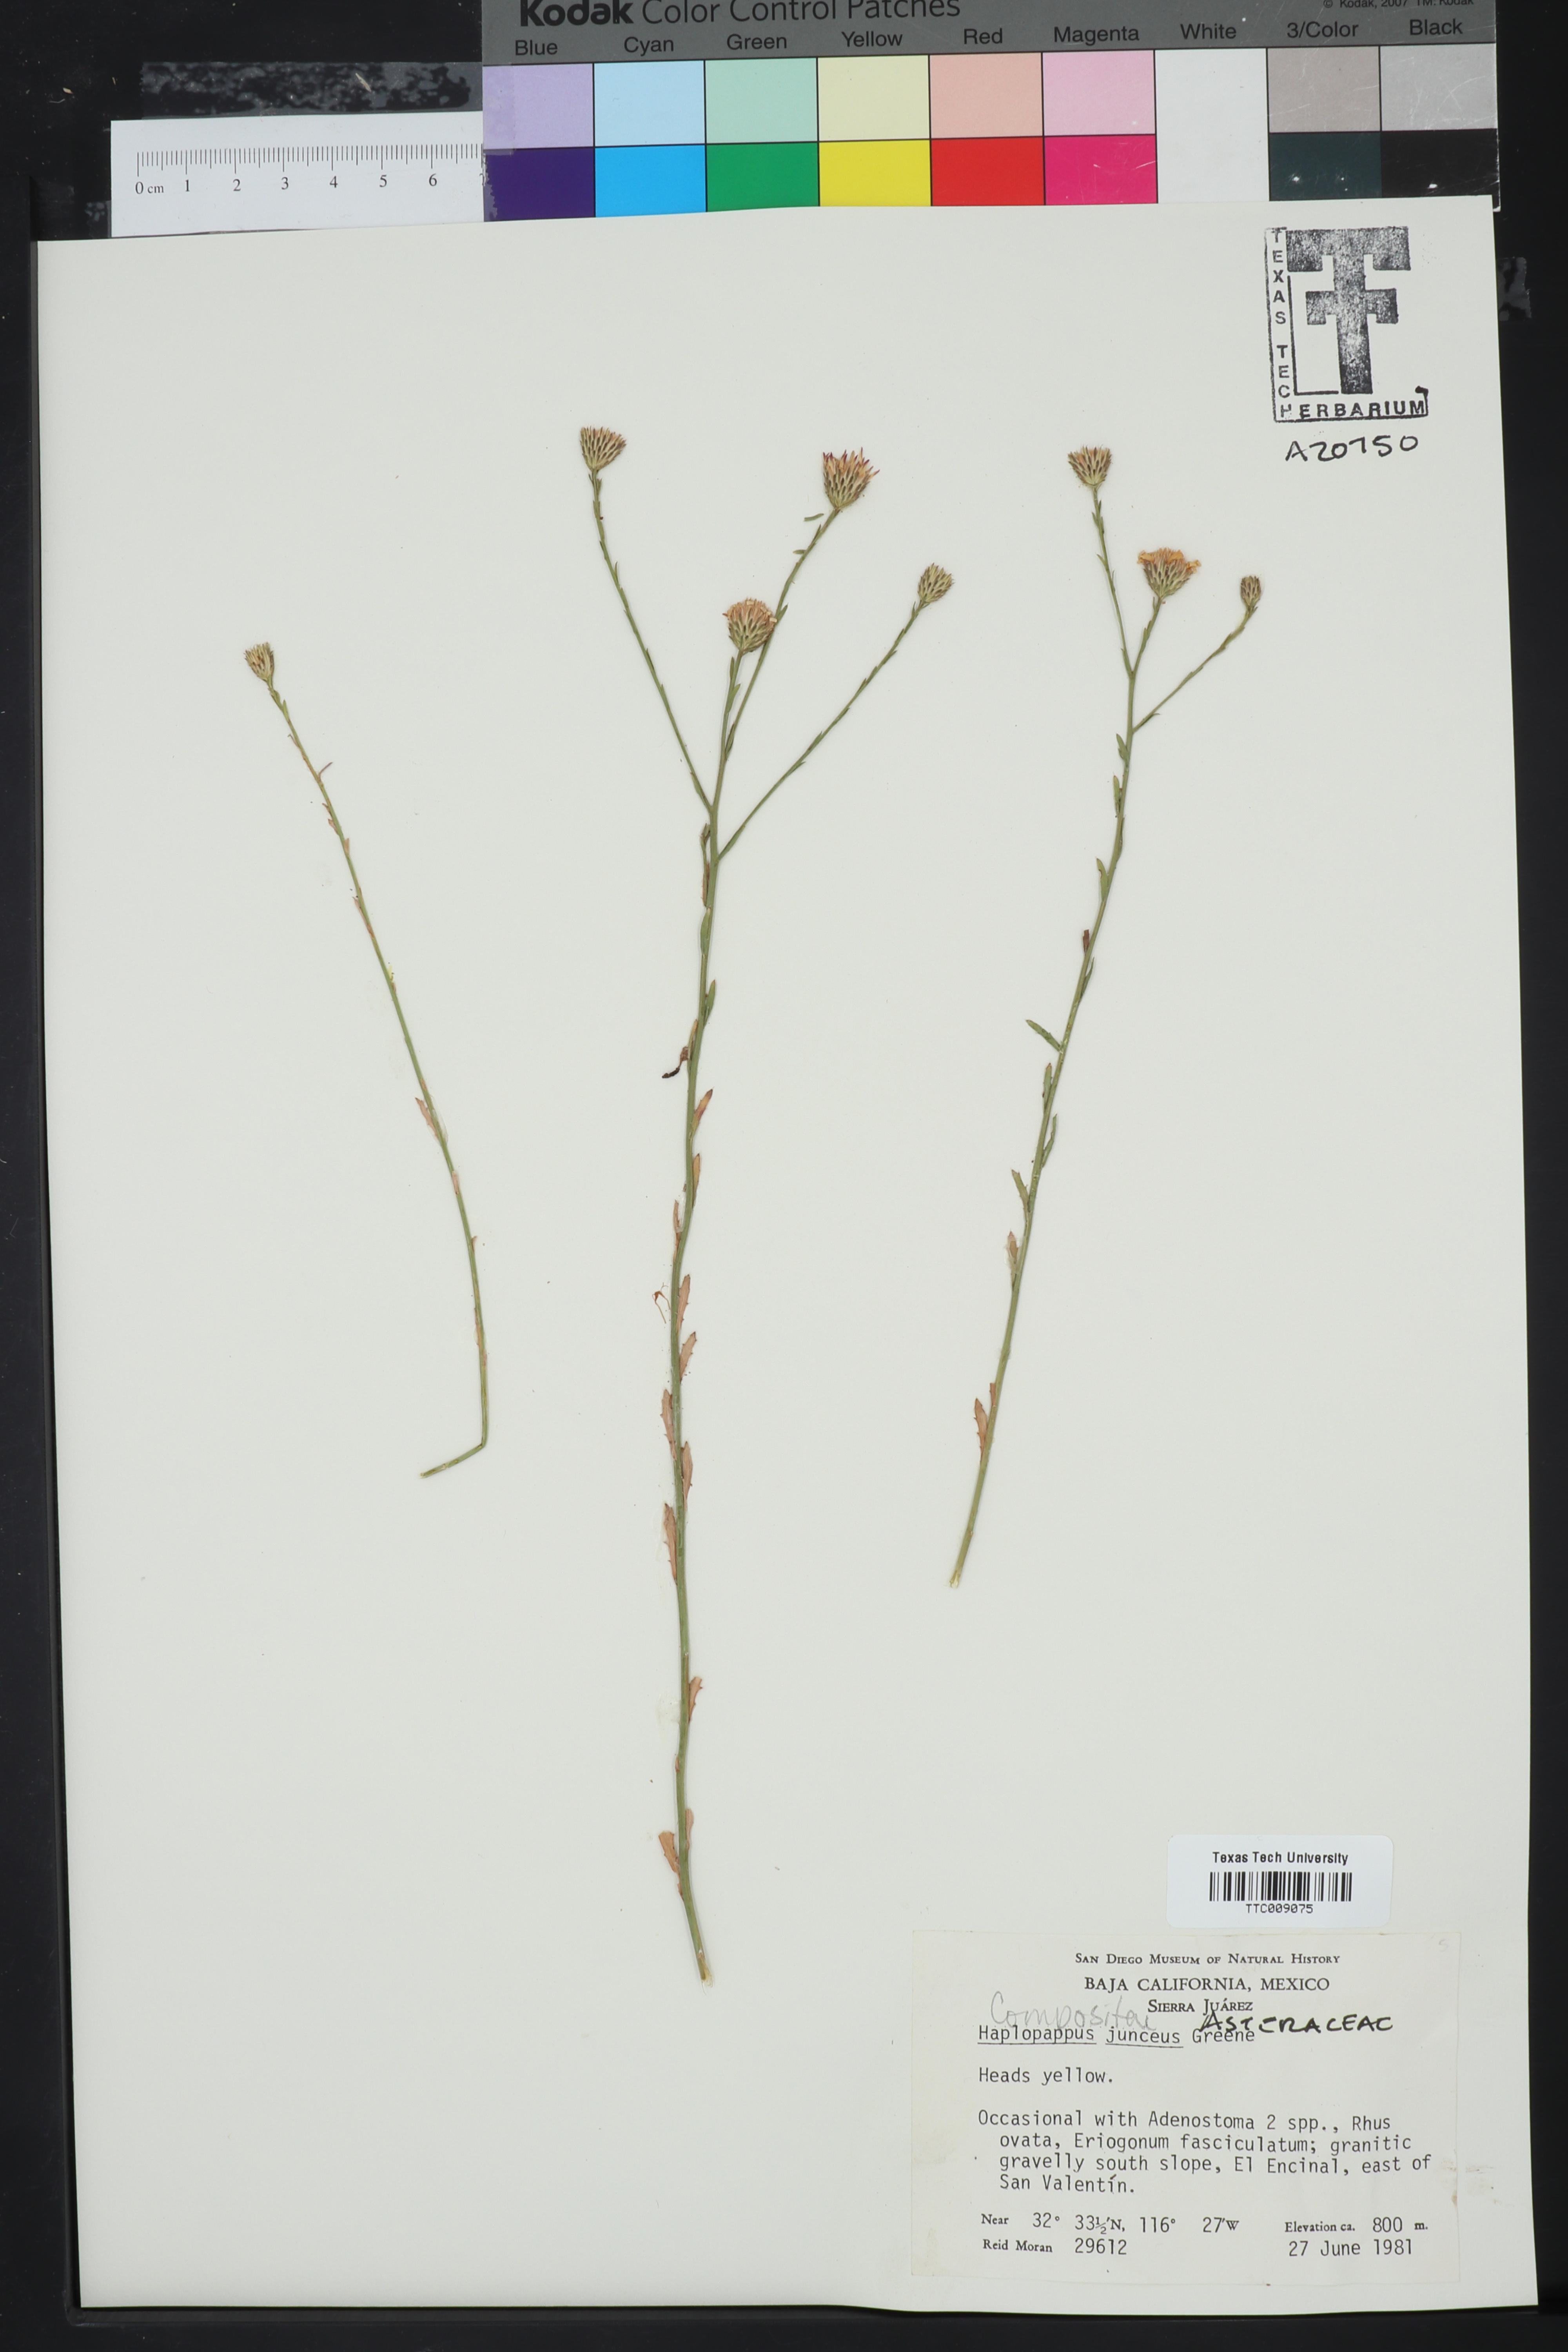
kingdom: Plantae
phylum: Tracheophyta
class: Magnoliopsida
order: Asterales
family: Asteraceae
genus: Xanthisma
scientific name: Xanthisma junceum
